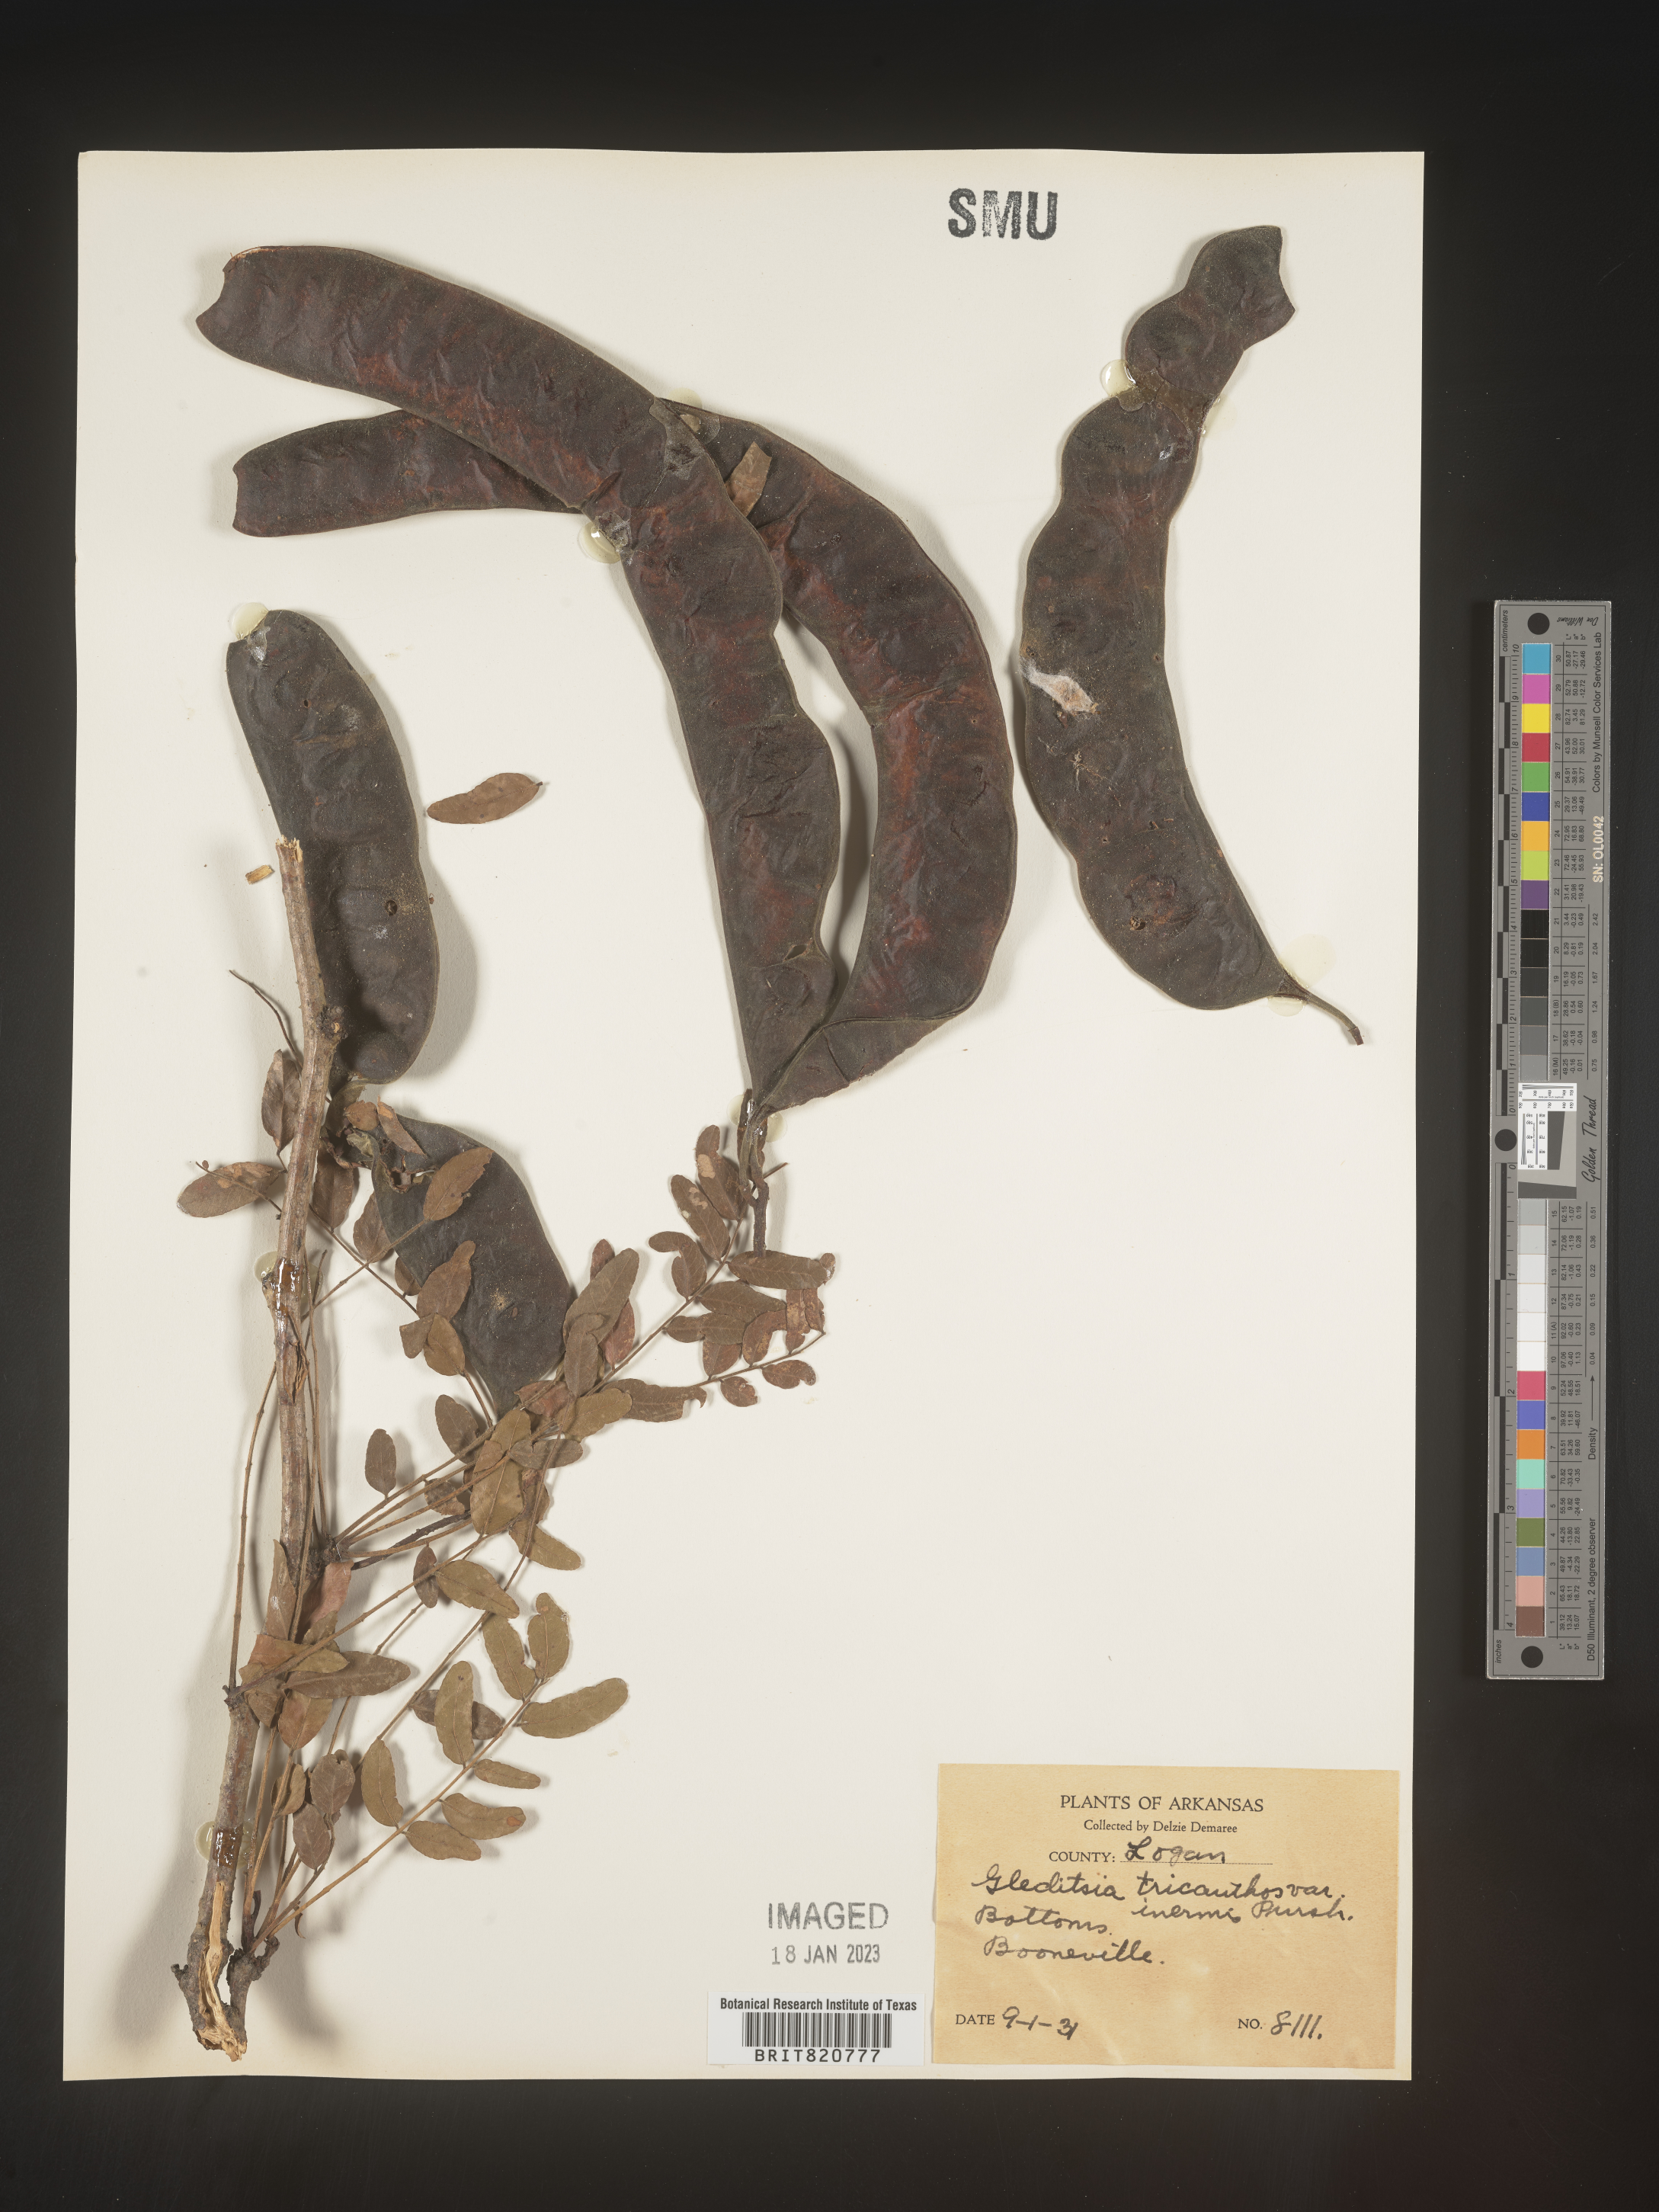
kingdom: Plantae
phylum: Tracheophyta
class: Magnoliopsida
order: Fabales
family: Fabaceae
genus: Gleditsia
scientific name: Gleditsia triacanthos
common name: Common honeylocust
